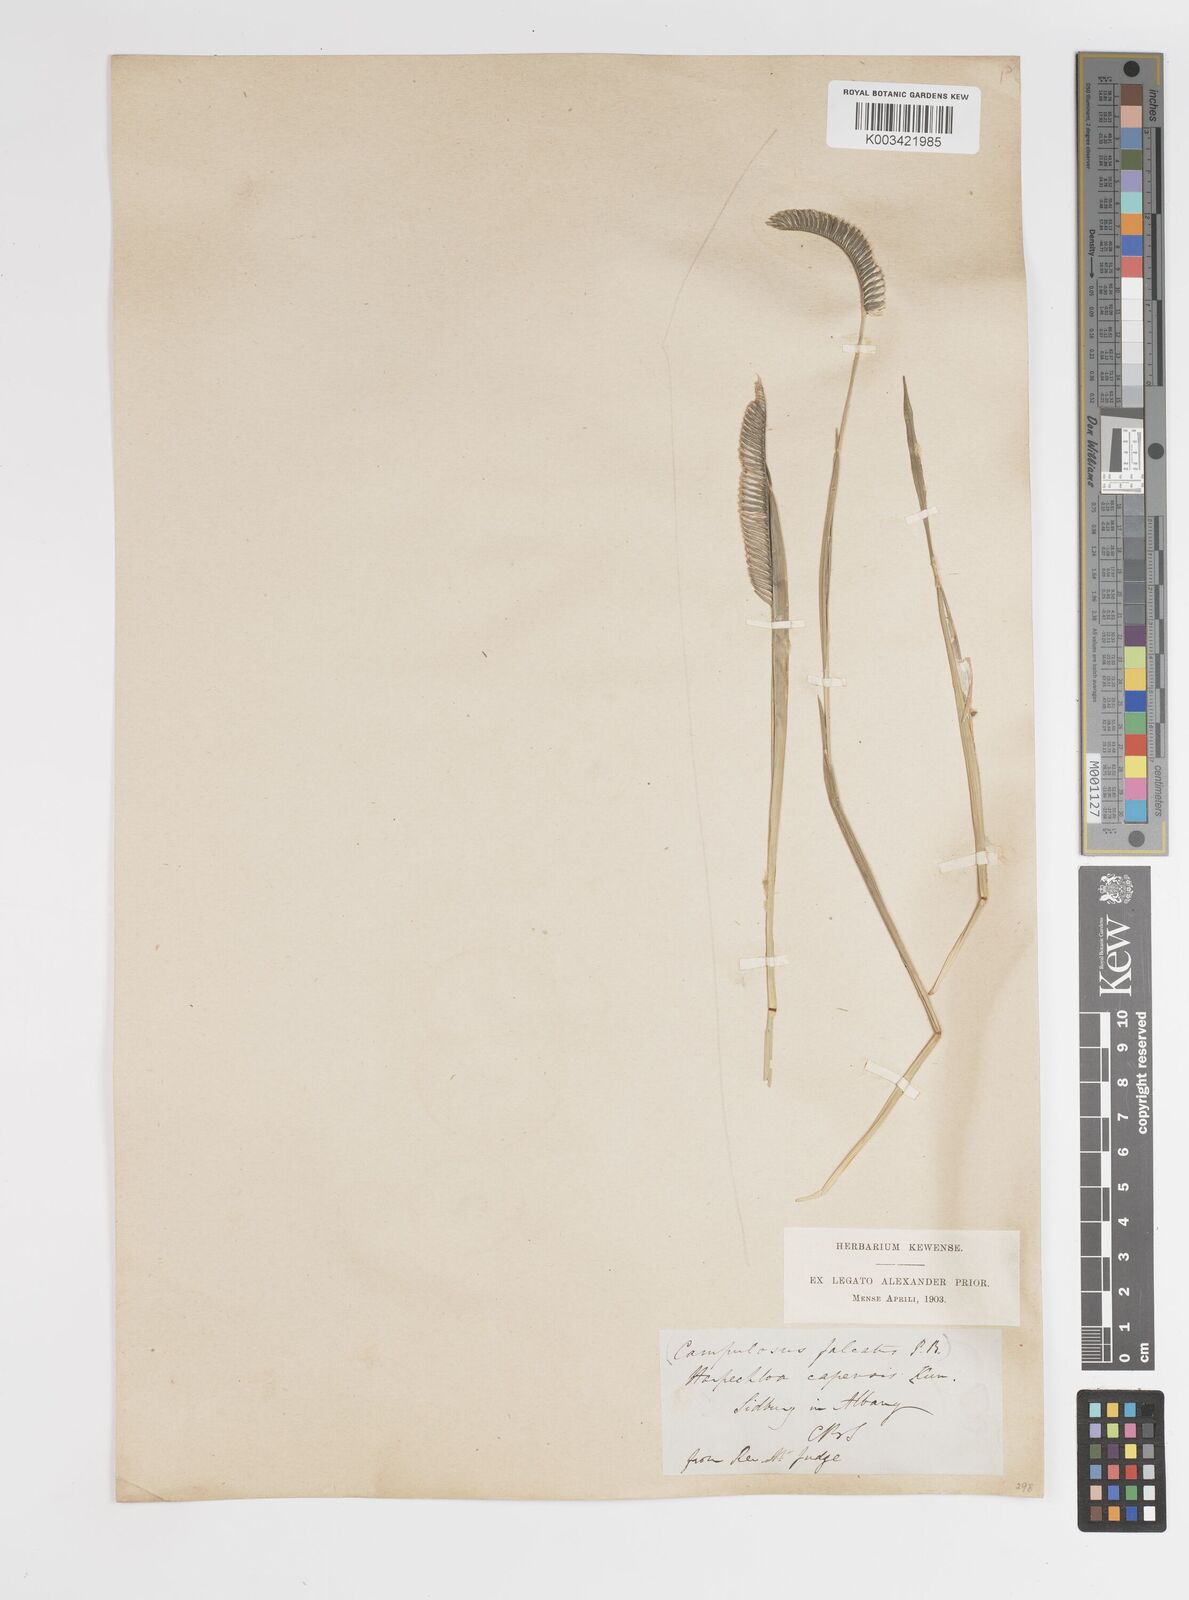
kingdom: Plantae
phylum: Tracheophyta
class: Liliopsida
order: Poales
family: Poaceae
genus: Harpochloa
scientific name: Harpochloa falx
